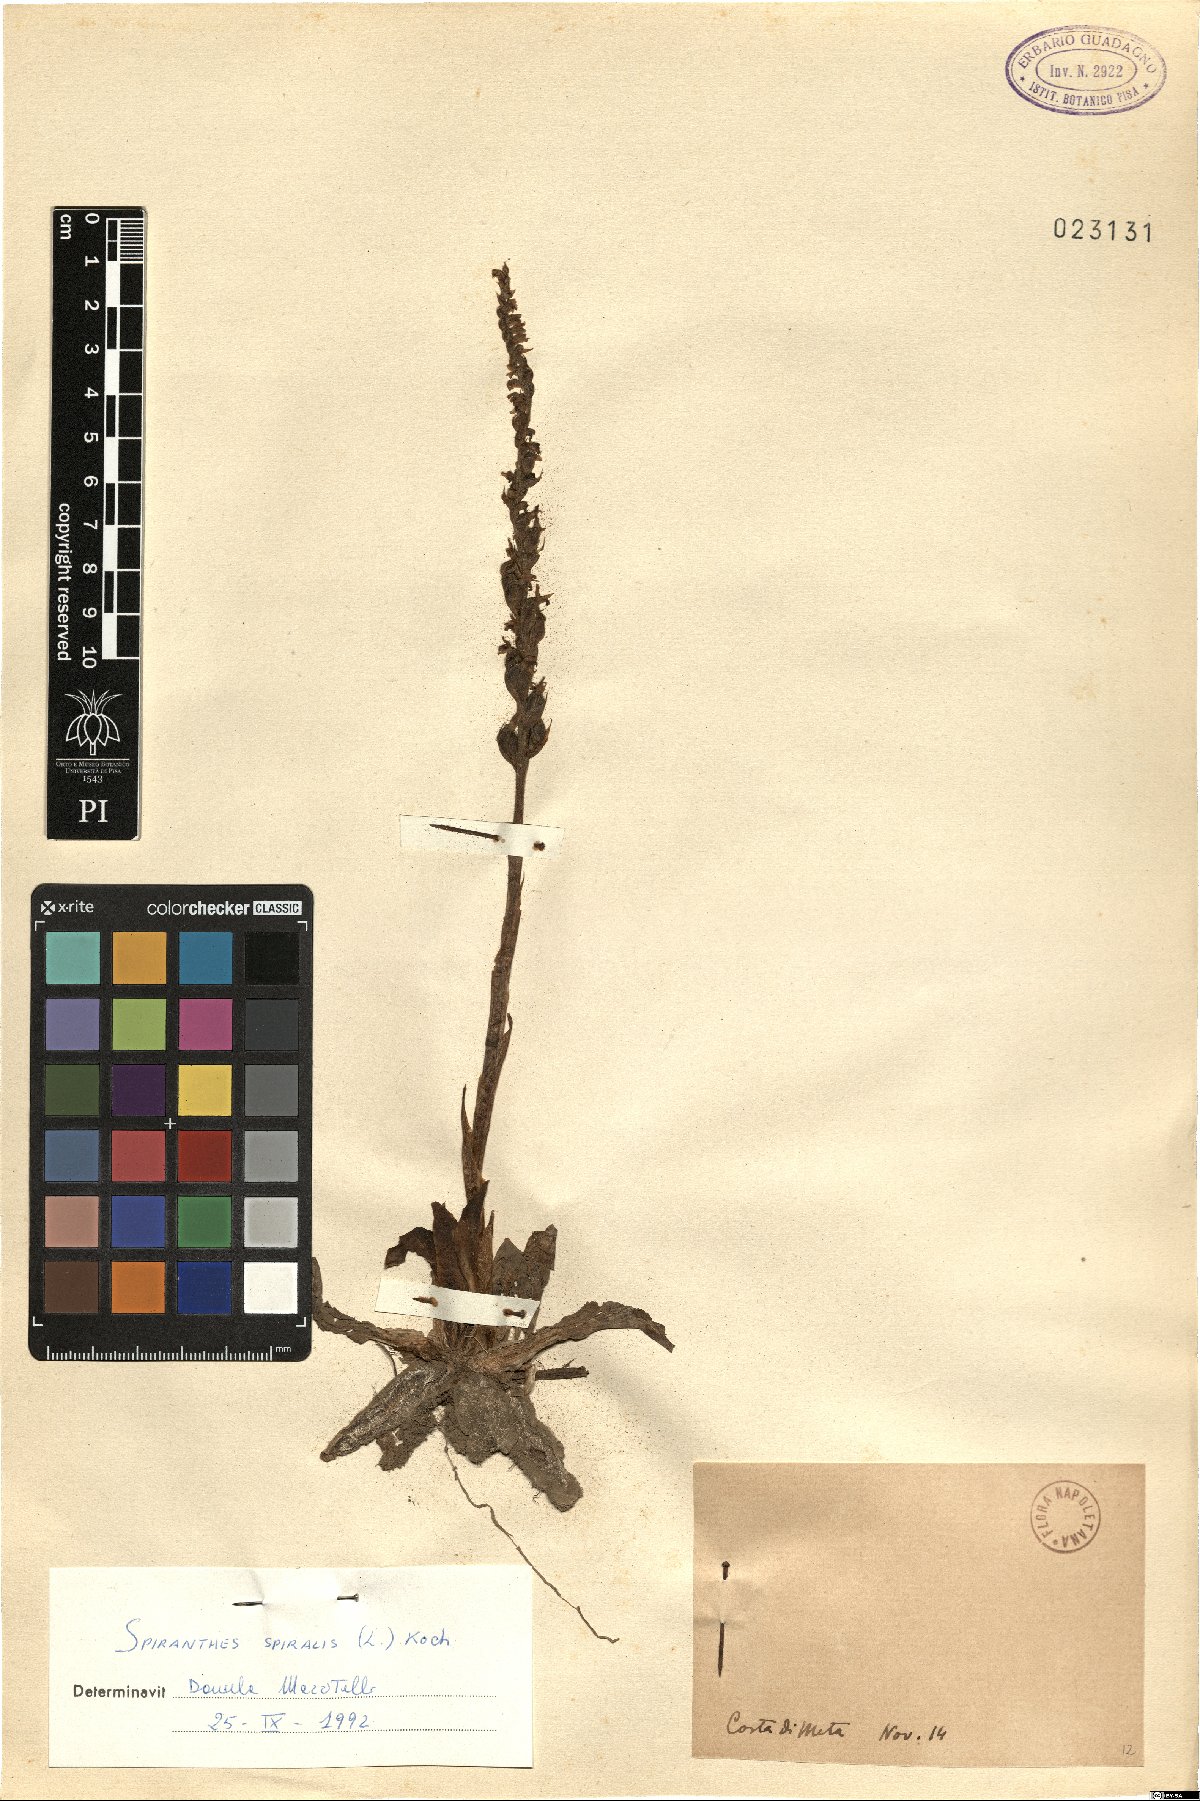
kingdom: Plantae
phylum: Tracheophyta
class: Liliopsida
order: Asparagales
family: Orchidaceae
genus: Spiranthes
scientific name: Spiranthes spiralis
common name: Autumn lady's-tresses
